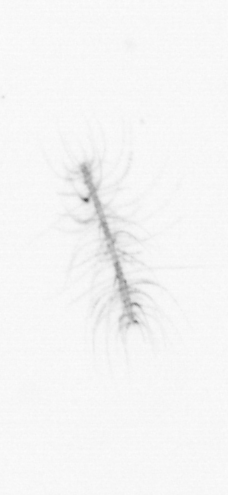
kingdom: Chromista
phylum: Ochrophyta
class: Bacillariophyceae
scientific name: Bacillariophyceae
